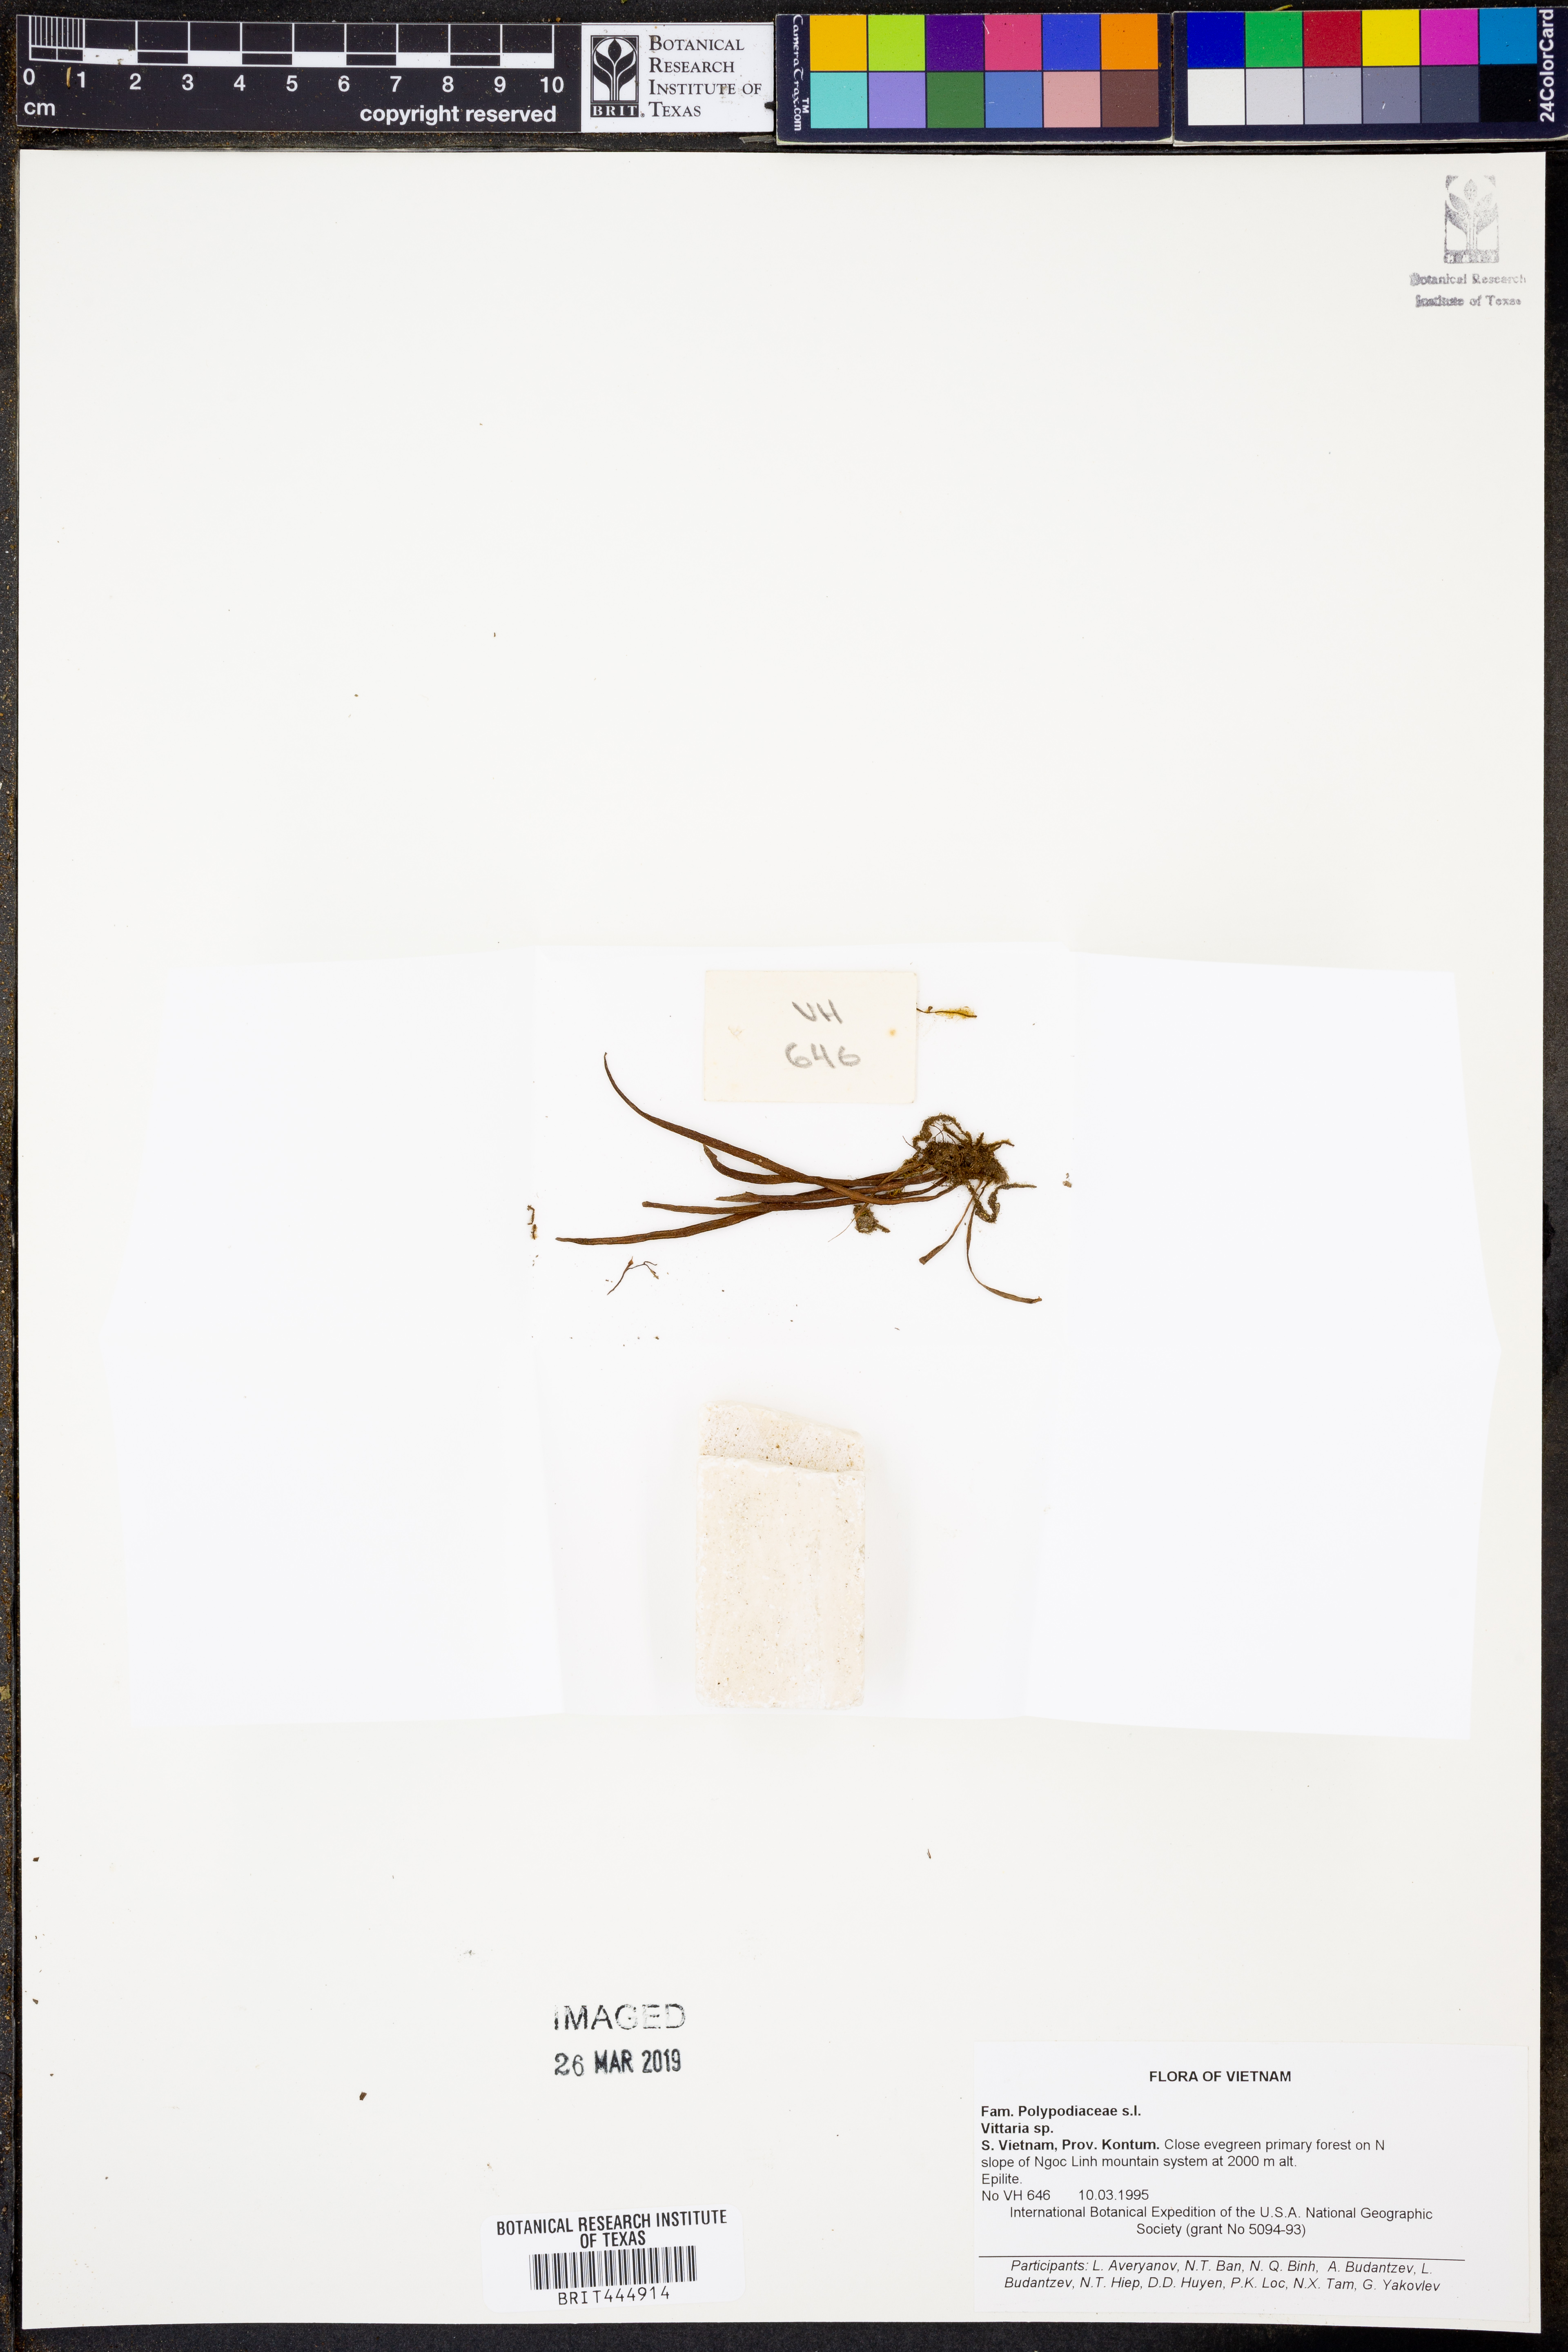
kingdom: Plantae
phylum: Tracheophyta
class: Polypodiopsida
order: Polypodiales
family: Pteridaceae
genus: Vittaria
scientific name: Vittaria
